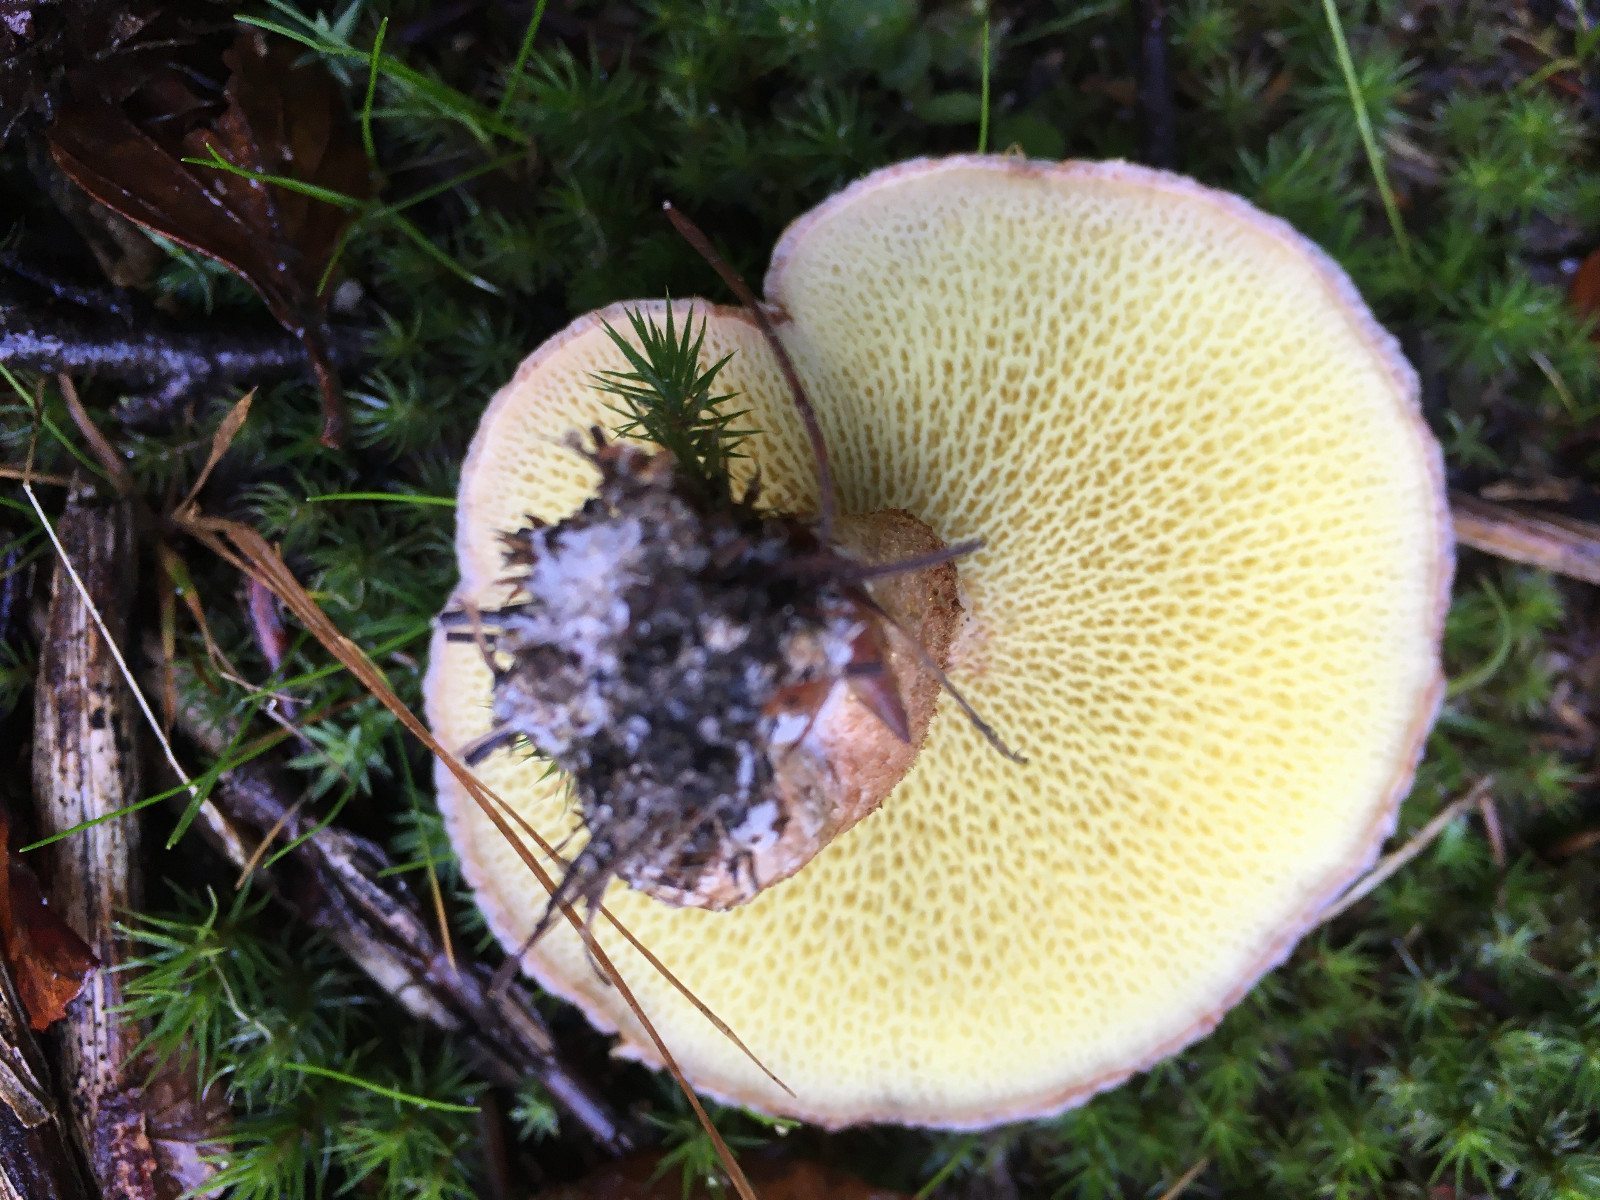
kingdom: Fungi
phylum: Basidiomycota
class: Agaricomycetes
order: Boletales
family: Suillaceae
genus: Suillus
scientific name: Suillus cavipes
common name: hulstokket slimrørhat
